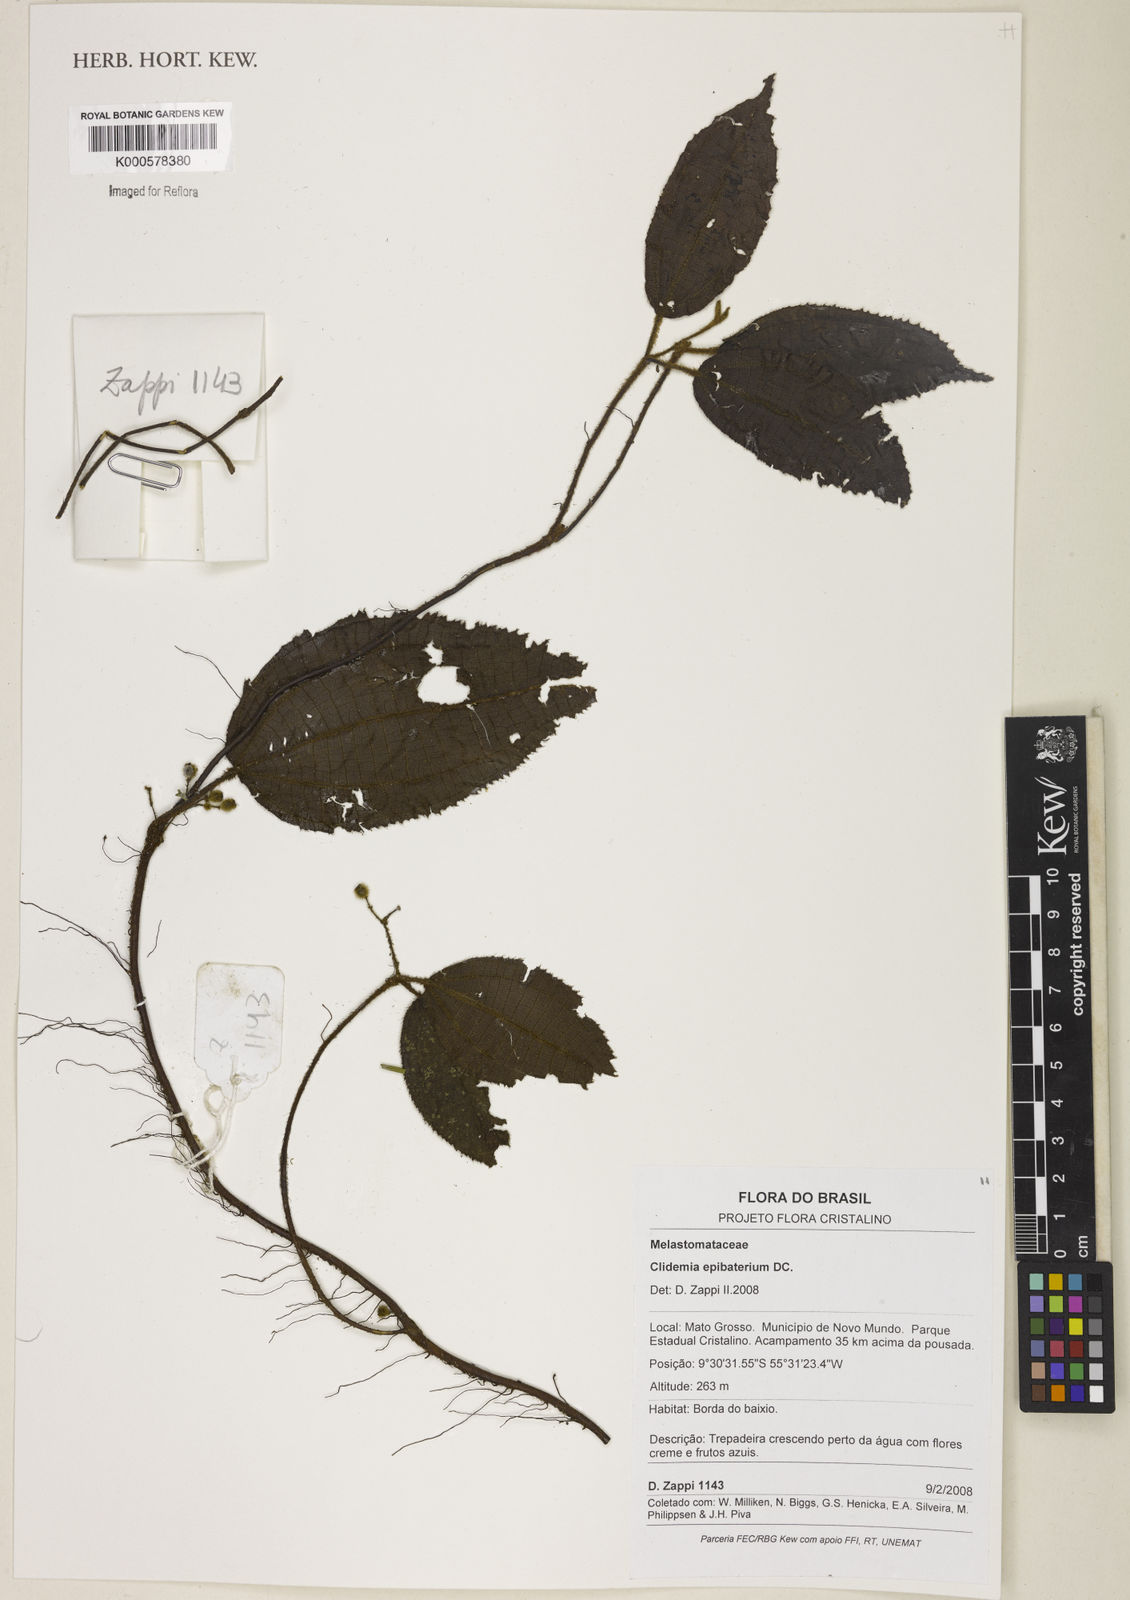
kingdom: Plantae
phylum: Tracheophyta
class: Magnoliopsida
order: Myrtales
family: Melastomataceae
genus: Miconia
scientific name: Miconia epibaterium
